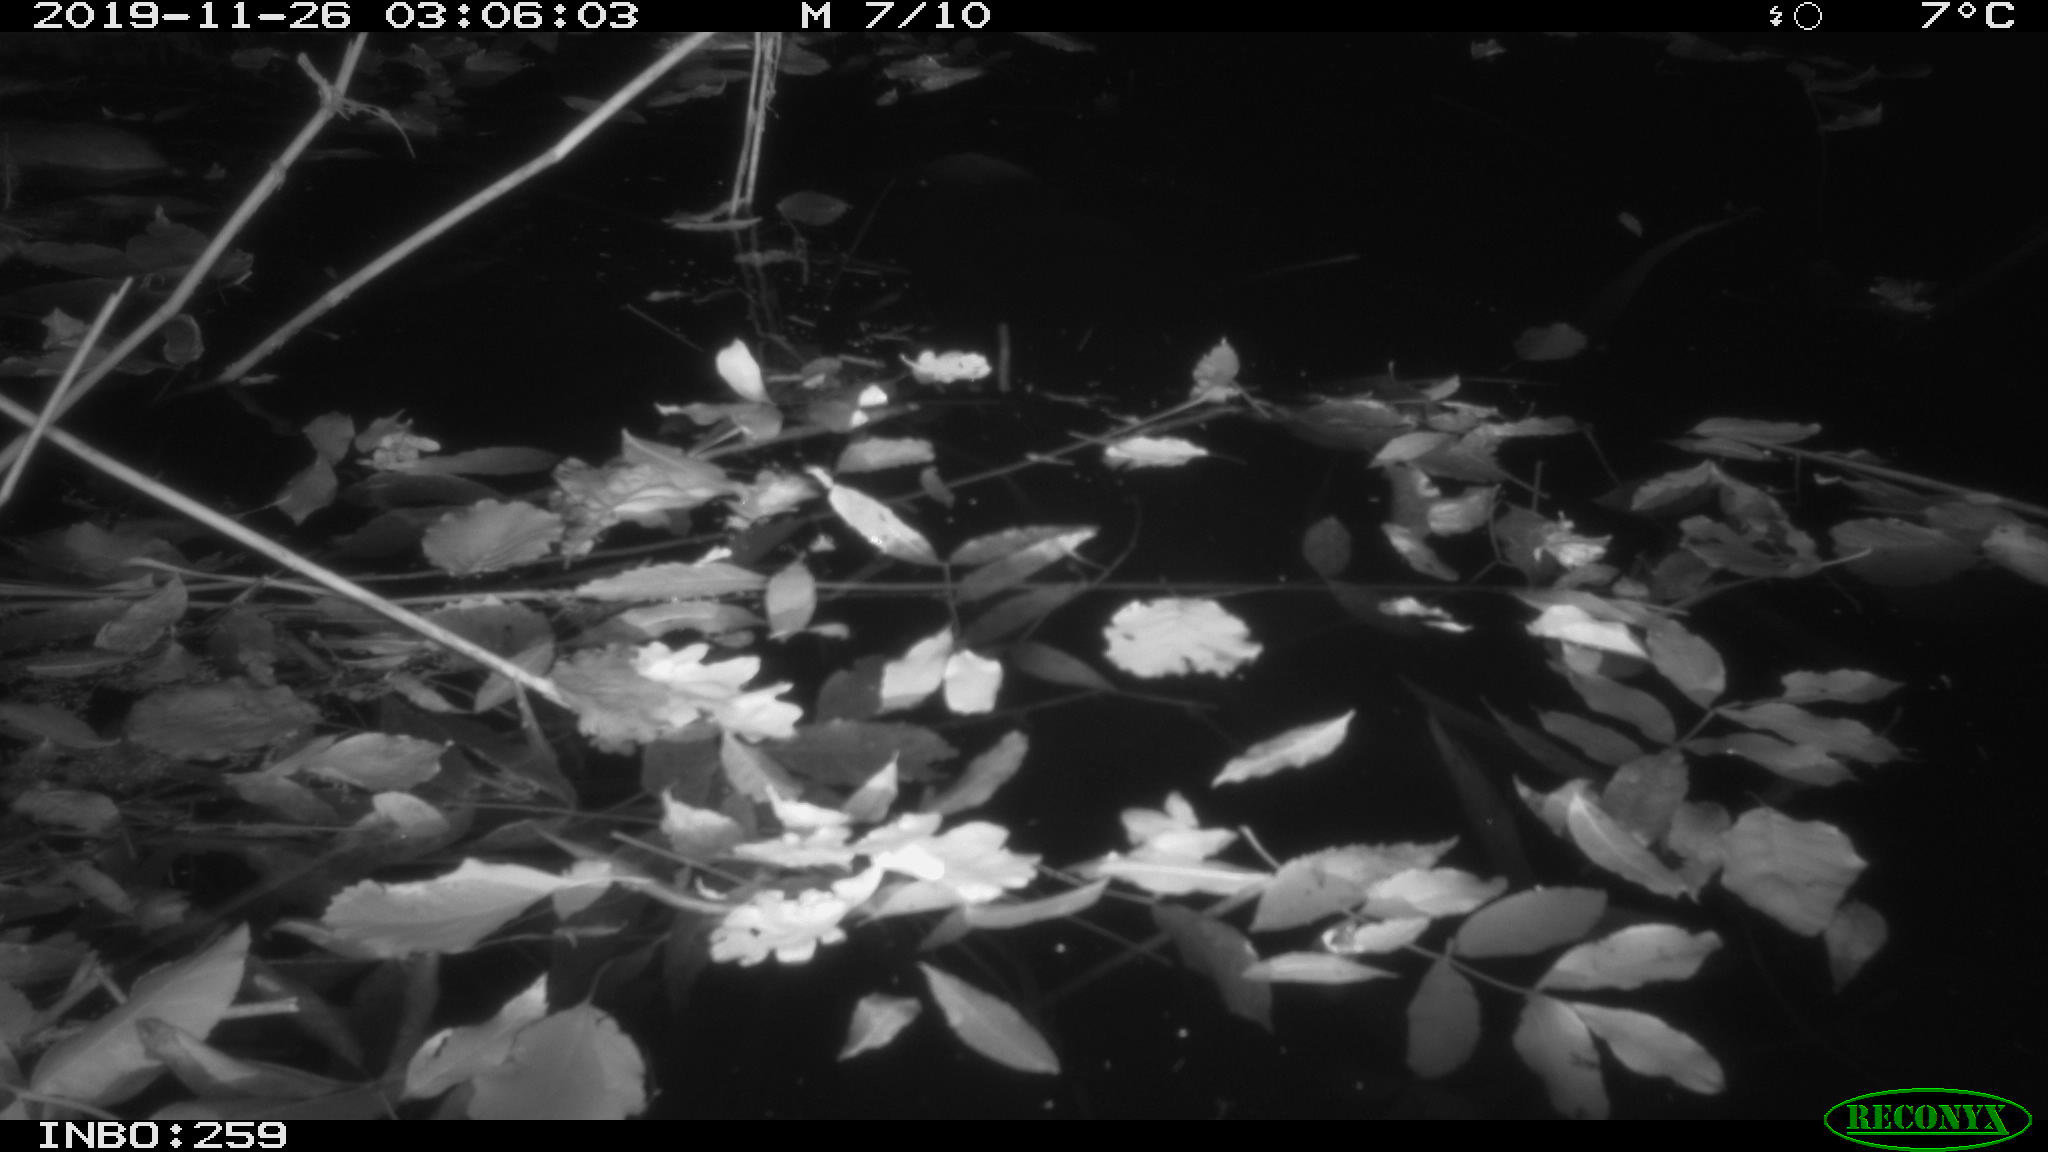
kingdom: Animalia
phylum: Chordata
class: Mammalia
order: Rodentia
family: Muridae
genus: Rattus
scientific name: Rattus norvegicus
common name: Brown rat
